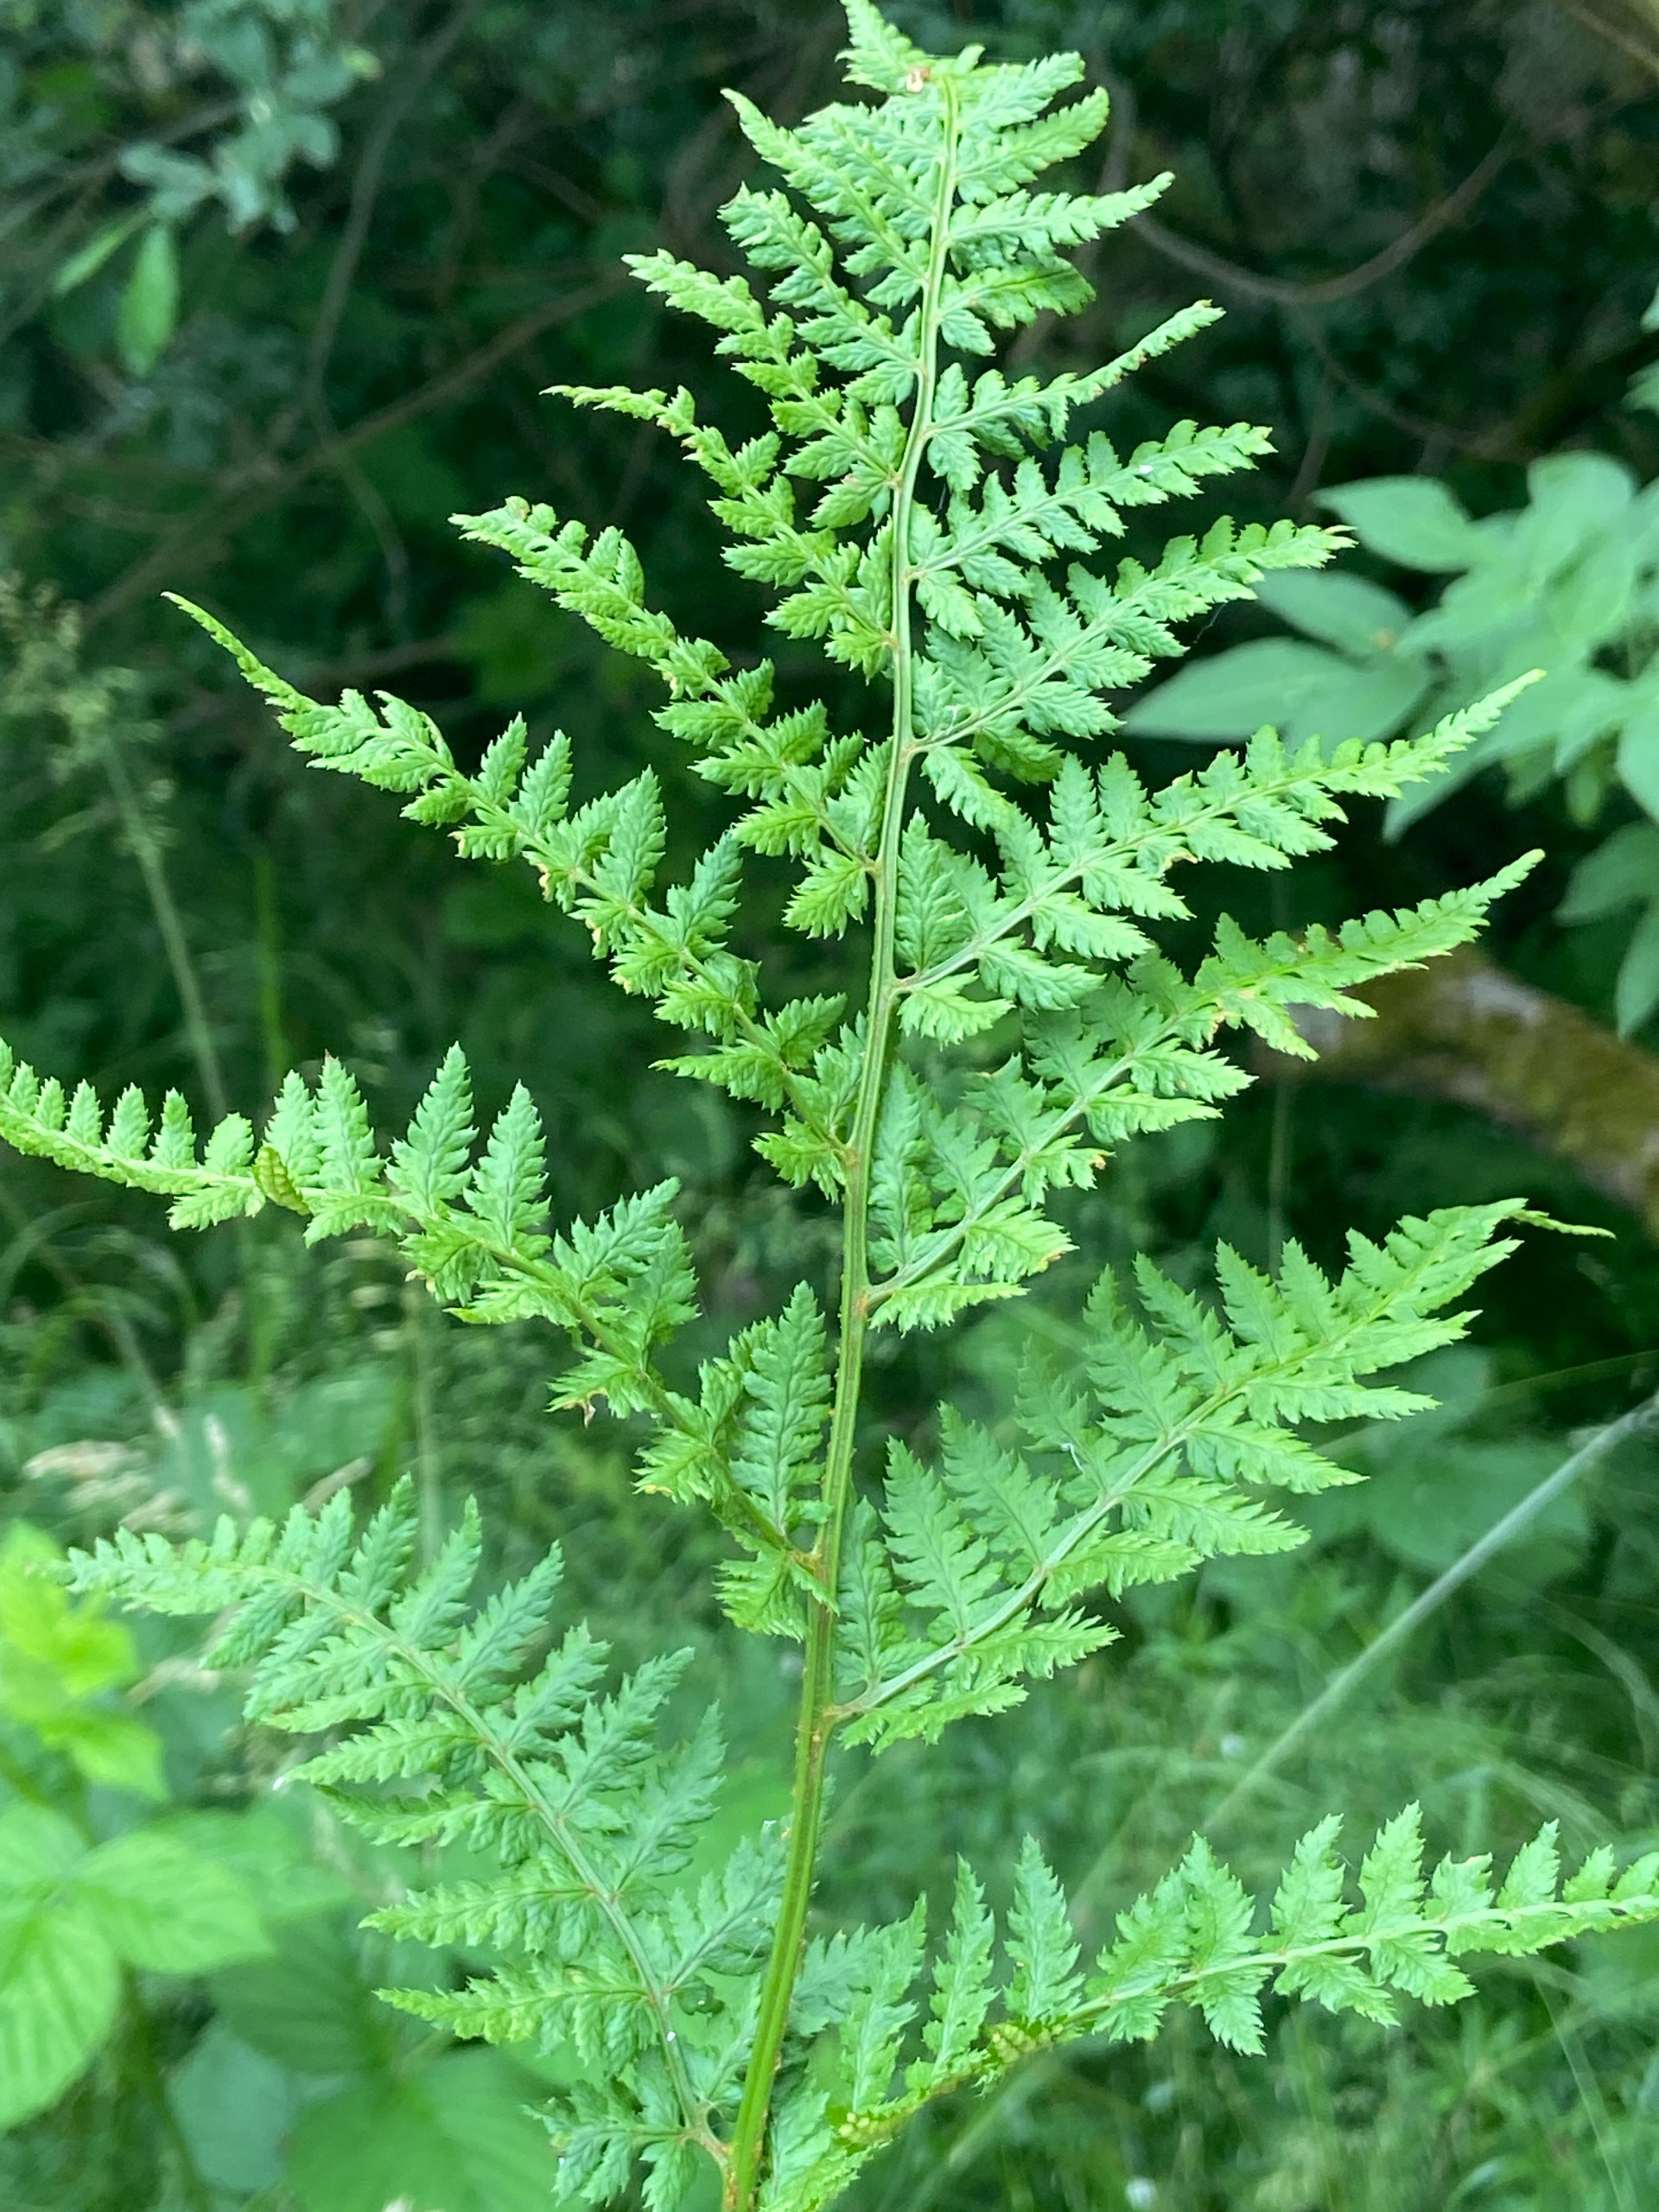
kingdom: Plantae
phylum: Tracheophyta
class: Polypodiopsida
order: Polypodiales
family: Dryopteridaceae
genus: Dryopteris
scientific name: Dryopteris dilatata
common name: Bredbladet mangeløv
